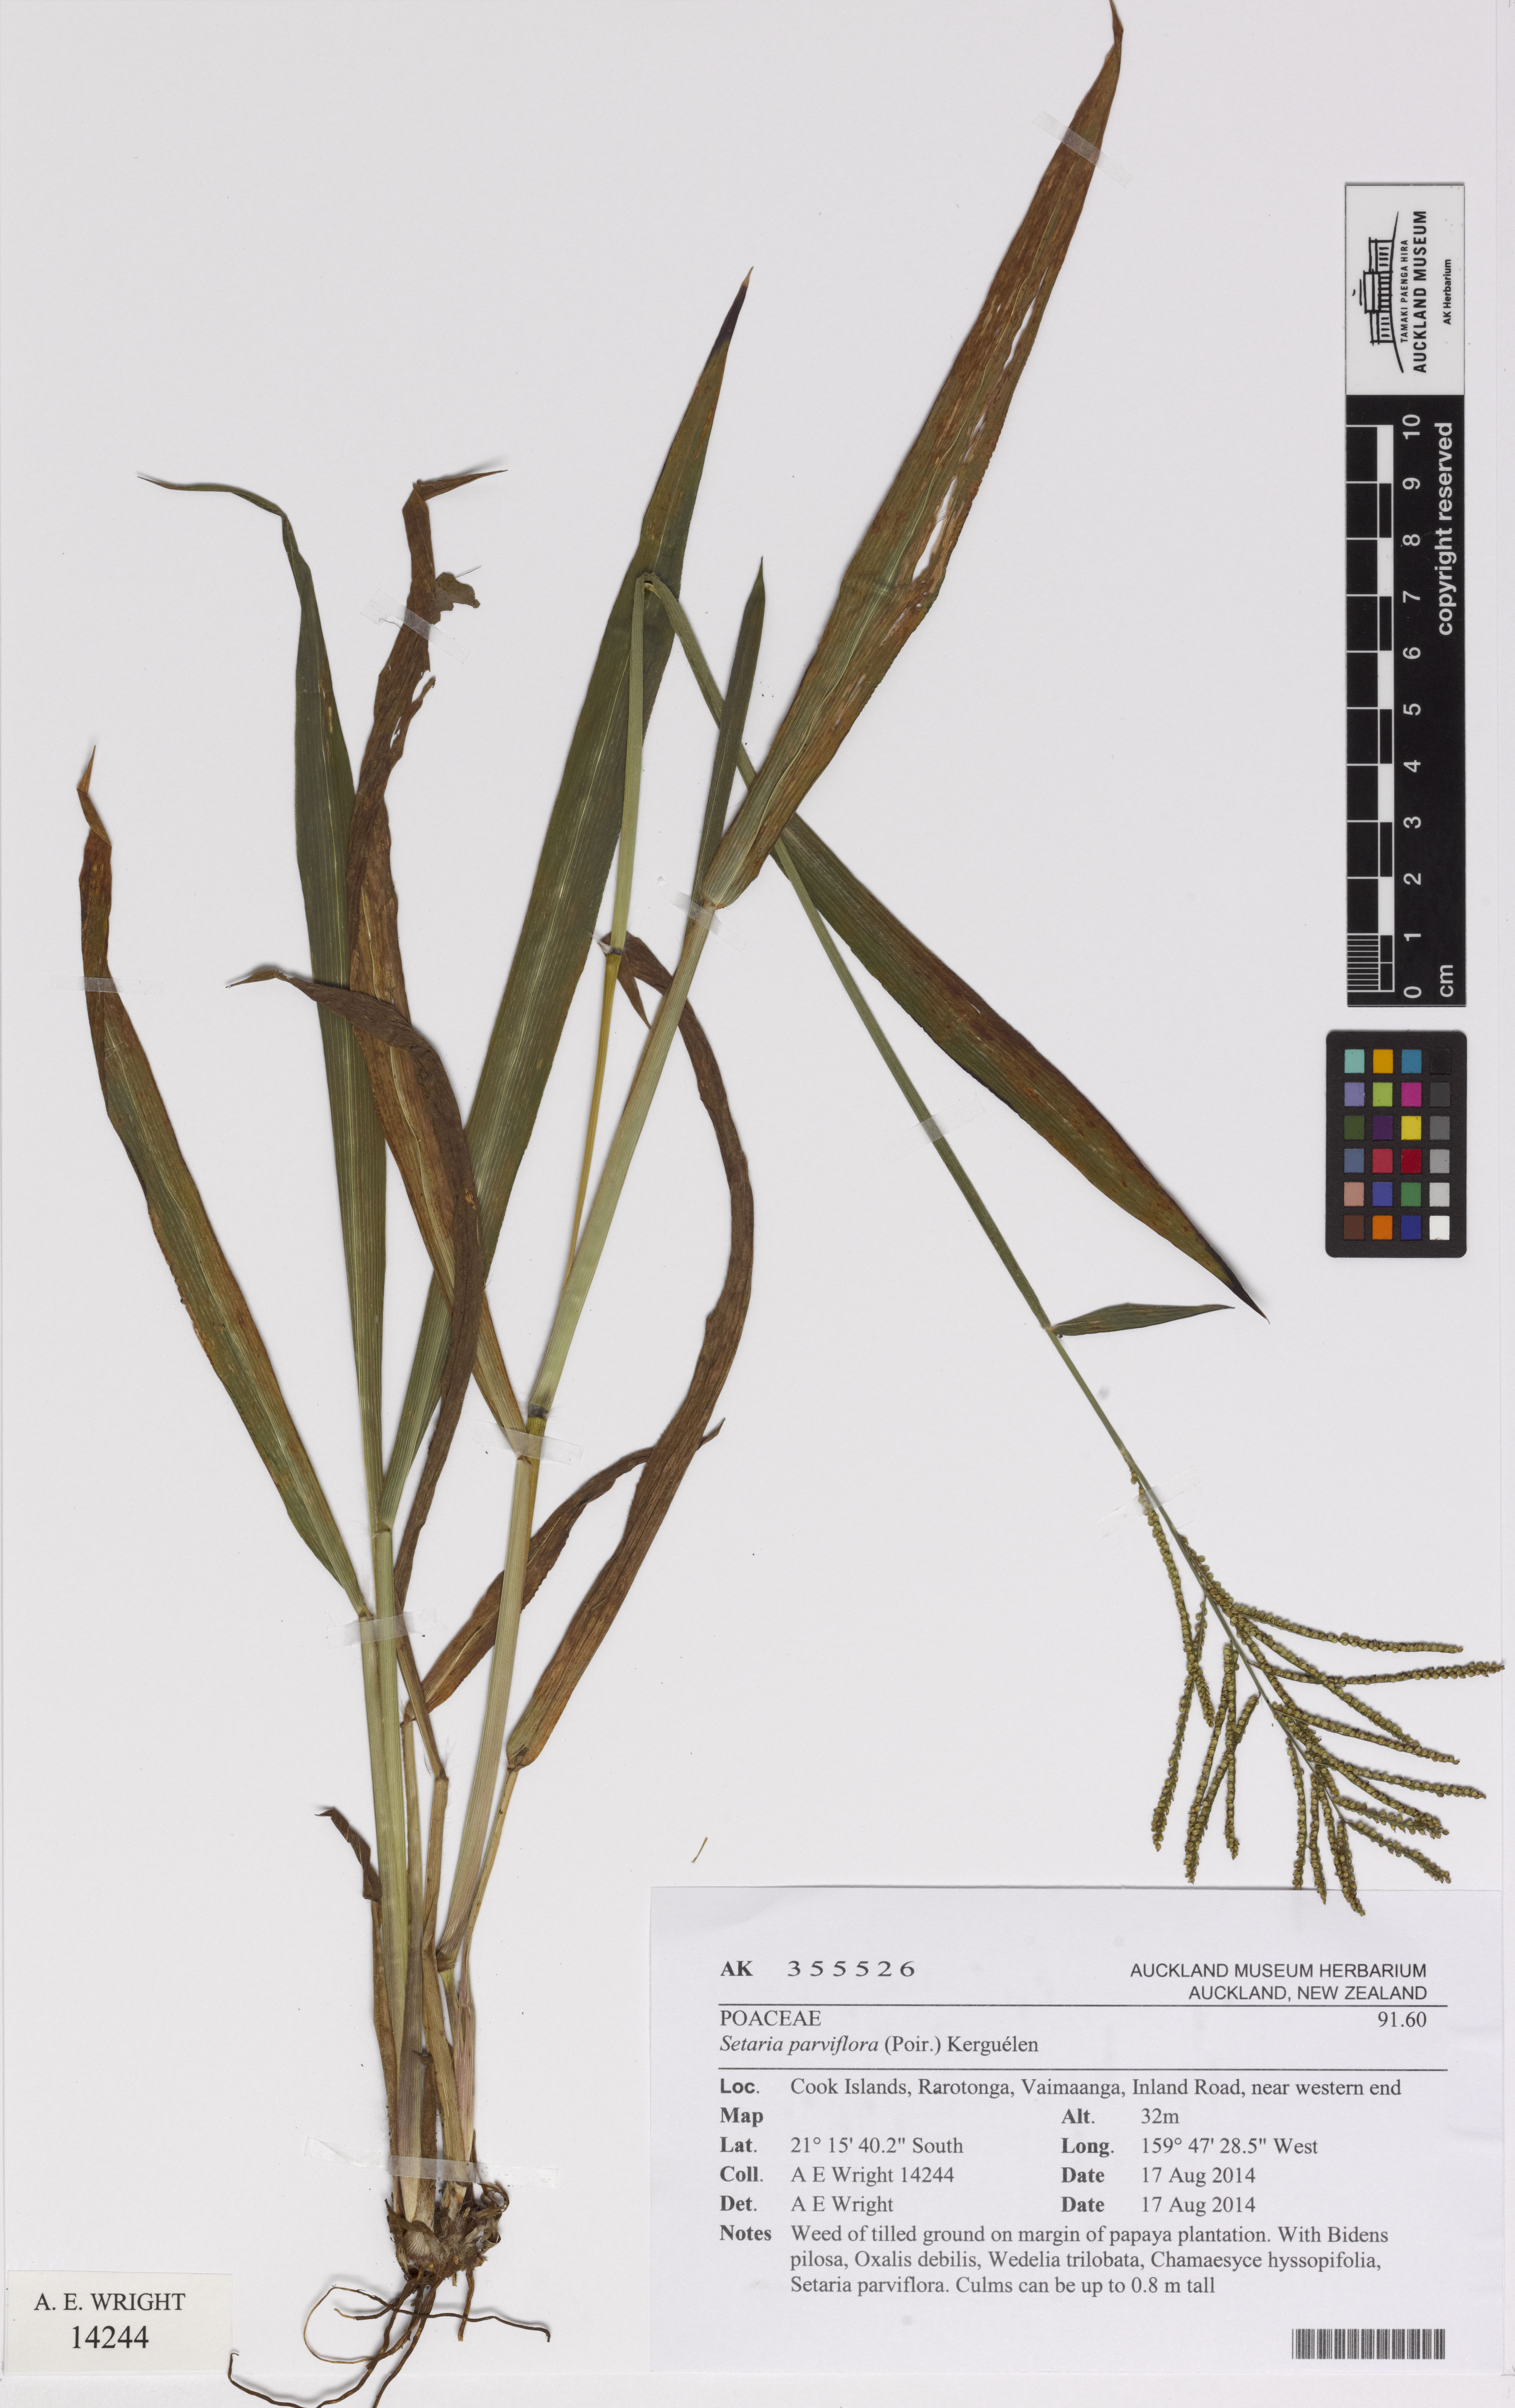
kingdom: Plantae
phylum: Tracheophyta
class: Liliopsida
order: Poales
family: Poaceae
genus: Paspalum
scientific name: Paspalum paniculatum
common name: Arrocillo
